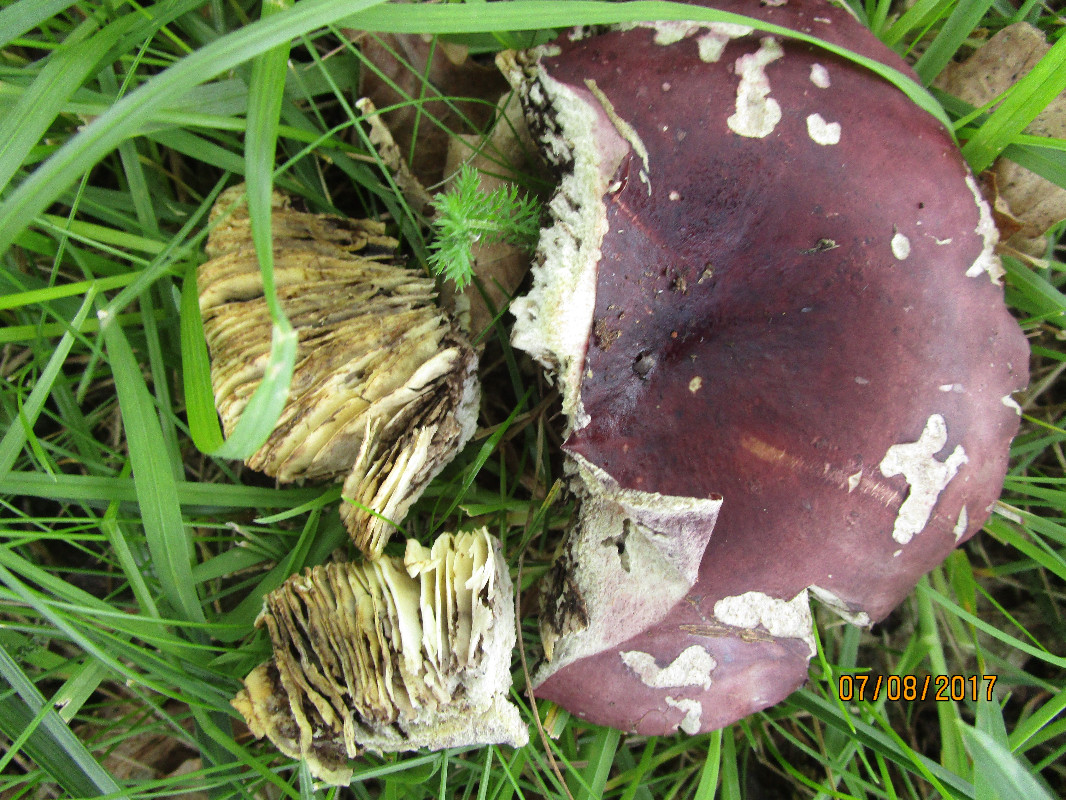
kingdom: Fungi
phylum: Basidiomycota
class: Agaricomycetes
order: Russulales
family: Russulaceae
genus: Russula
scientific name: Russula seperina
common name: rødmende skørhat
